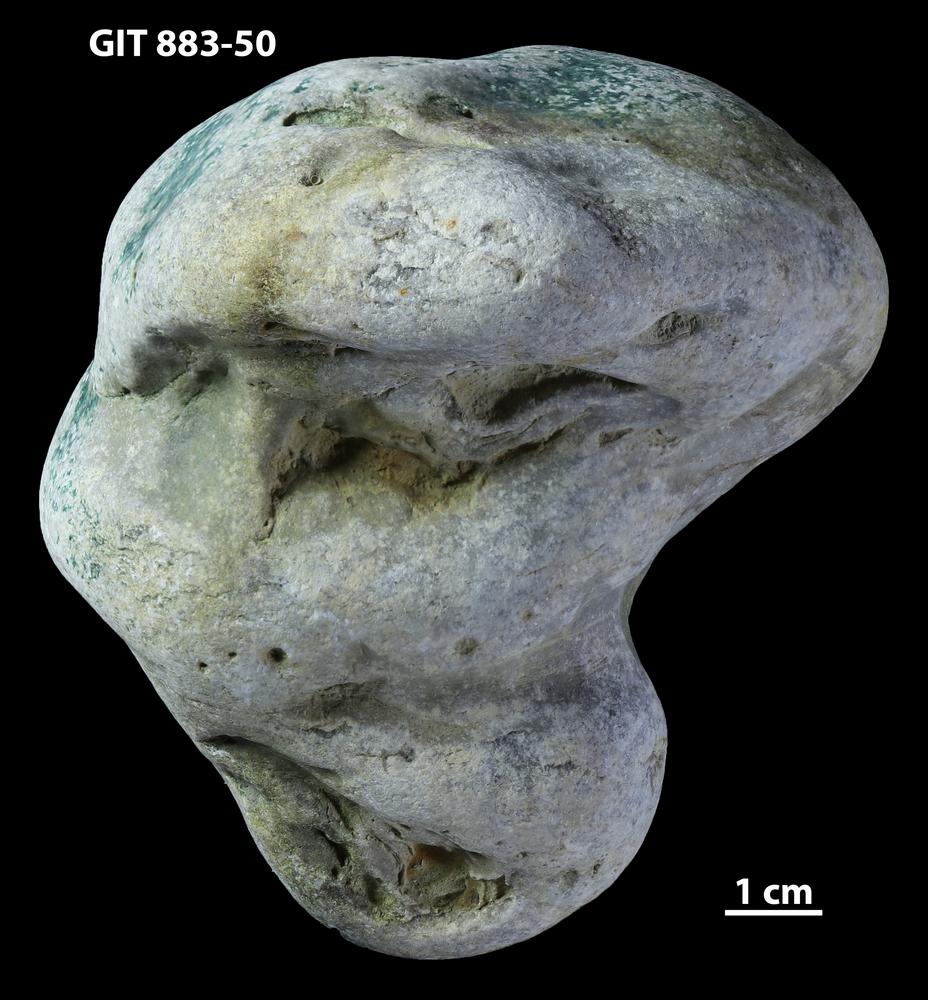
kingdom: Animalia
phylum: Porifera
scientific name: Porifera
